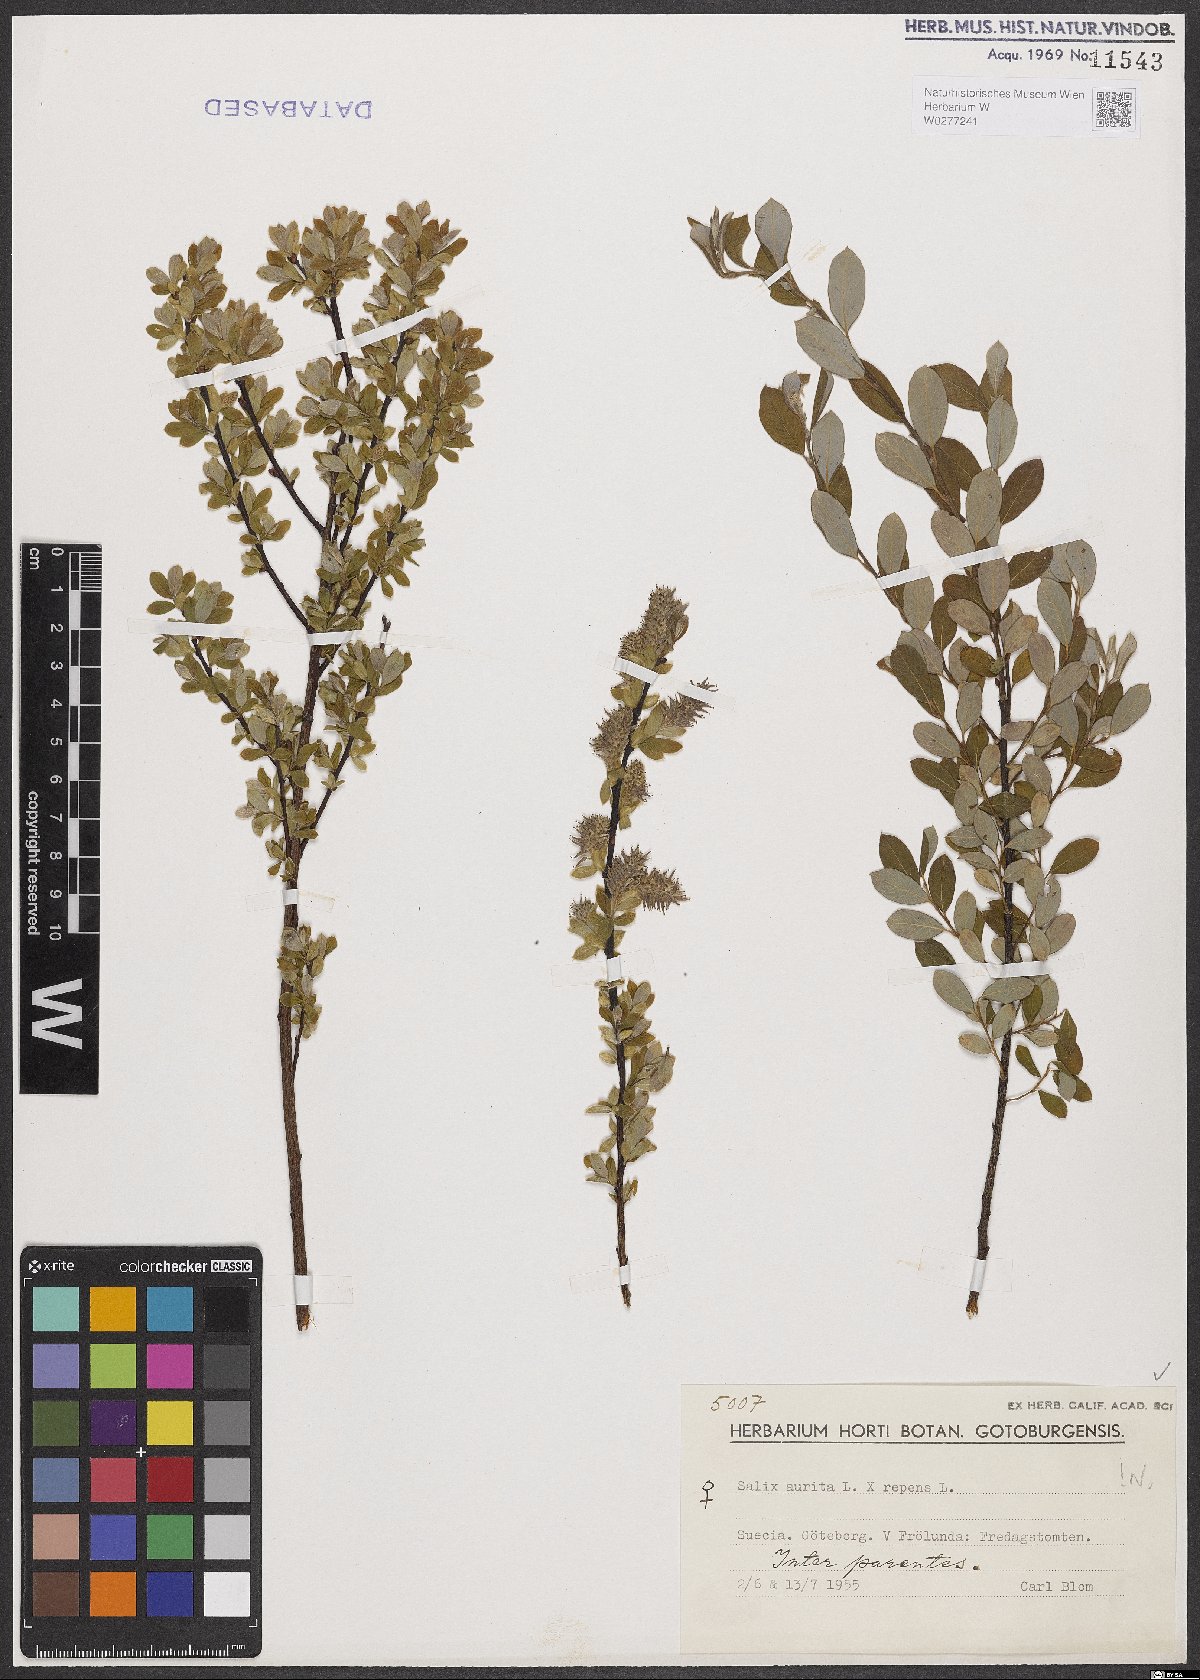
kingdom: Plantae
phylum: Tracheophyta
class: Magnoliopsida
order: Malpighiales
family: Salicaceae
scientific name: Salicaceae
